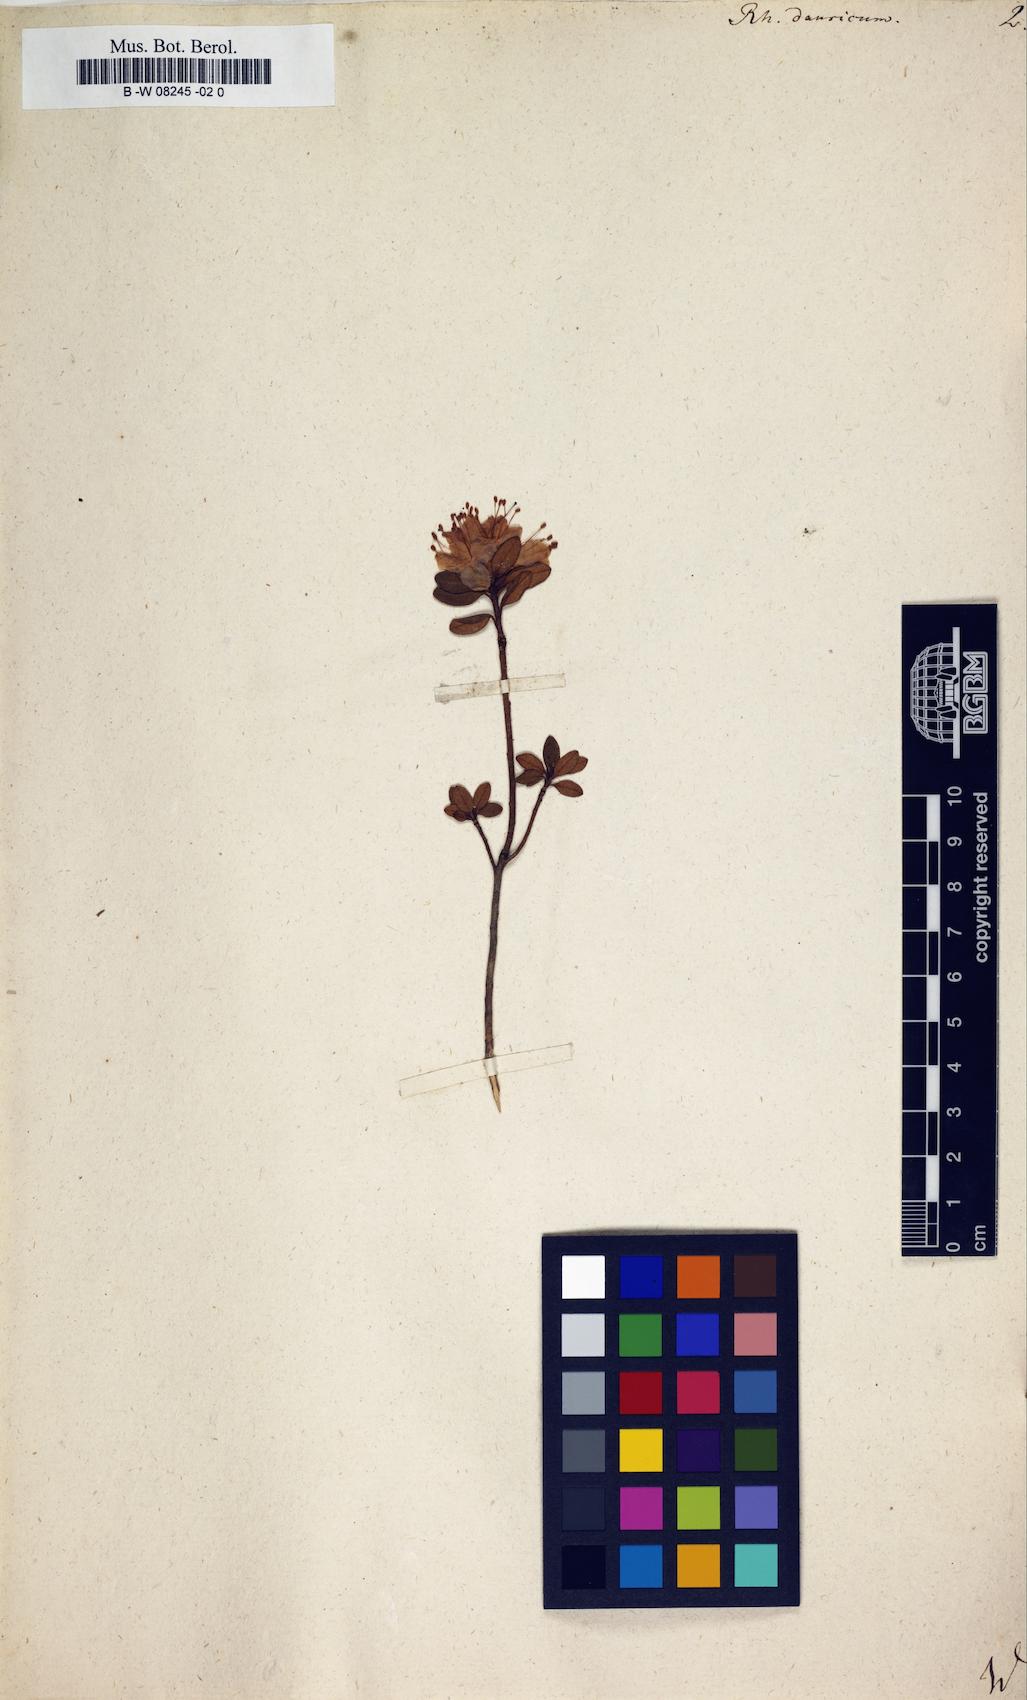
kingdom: Plantae
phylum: Tracheophyta
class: Magnoliopsida
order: Ericales
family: Ericaceae
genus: Rhododendron
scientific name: Rhododendron dauricum
